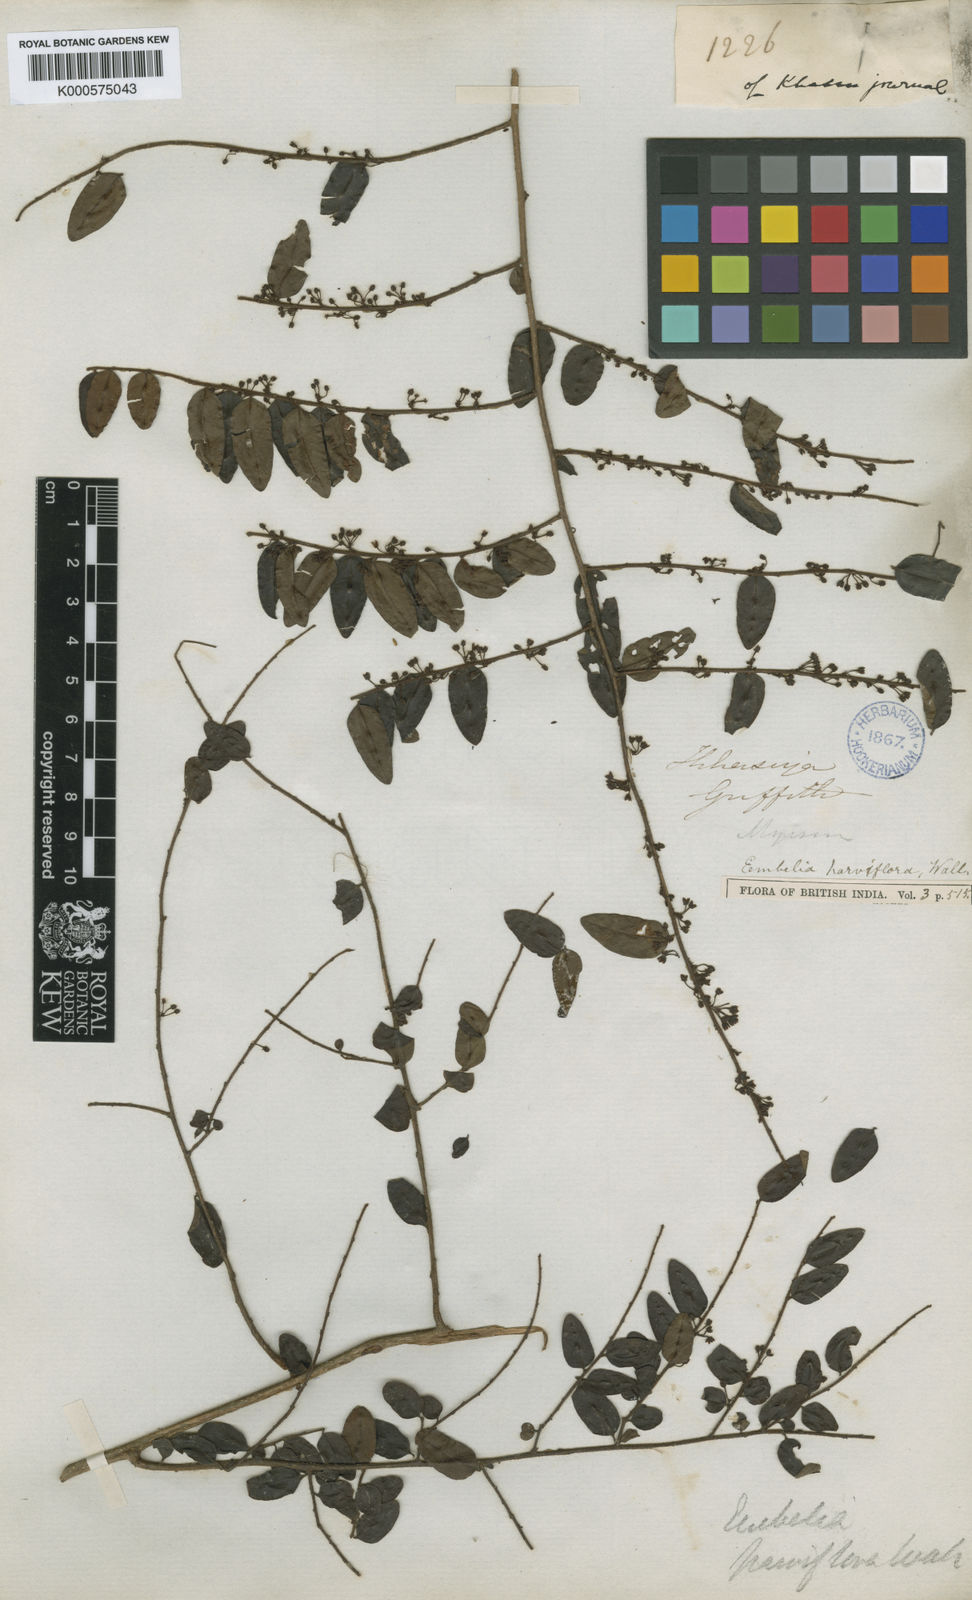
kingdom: Plantae
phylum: Tracheophyta
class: Magnoliopsida
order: Ericales
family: Primulaceae
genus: Embelia
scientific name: Embelia
